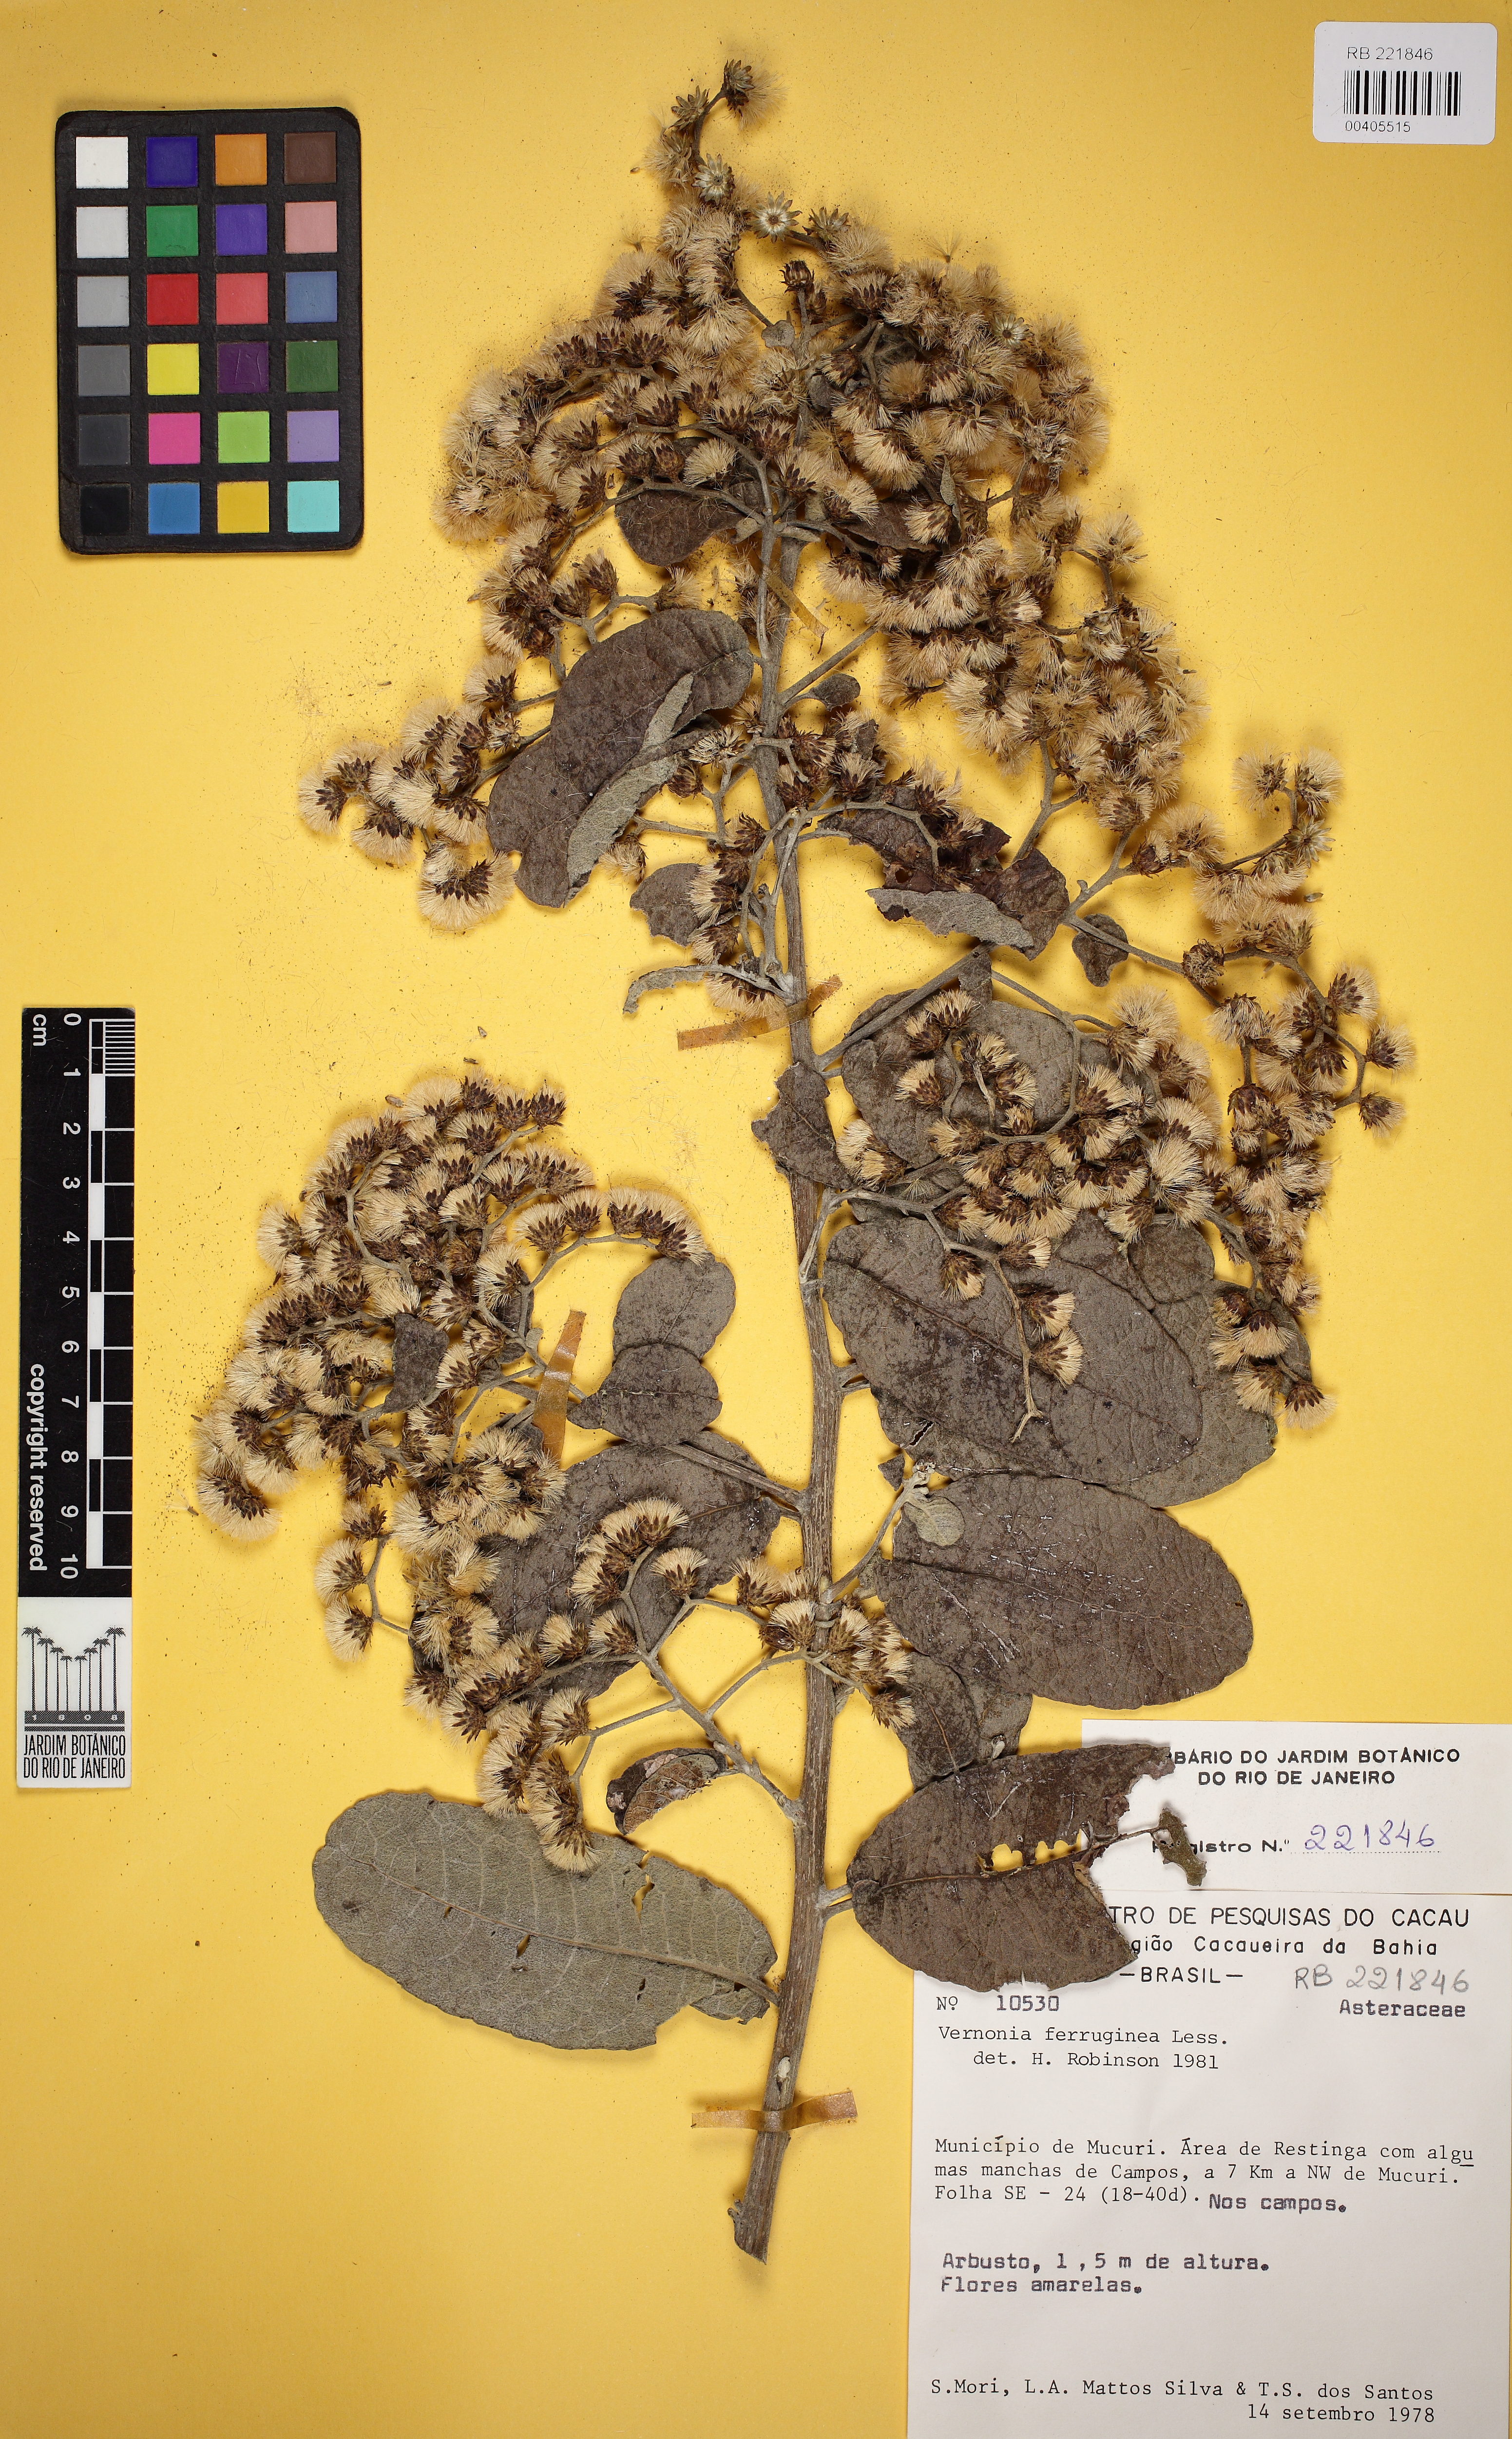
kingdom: Plantae
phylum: Tracheophyta
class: Magnoliopsida
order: Asterales
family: Asteraceae
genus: Vernonanthura
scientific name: Vernonanthura ferruginea
